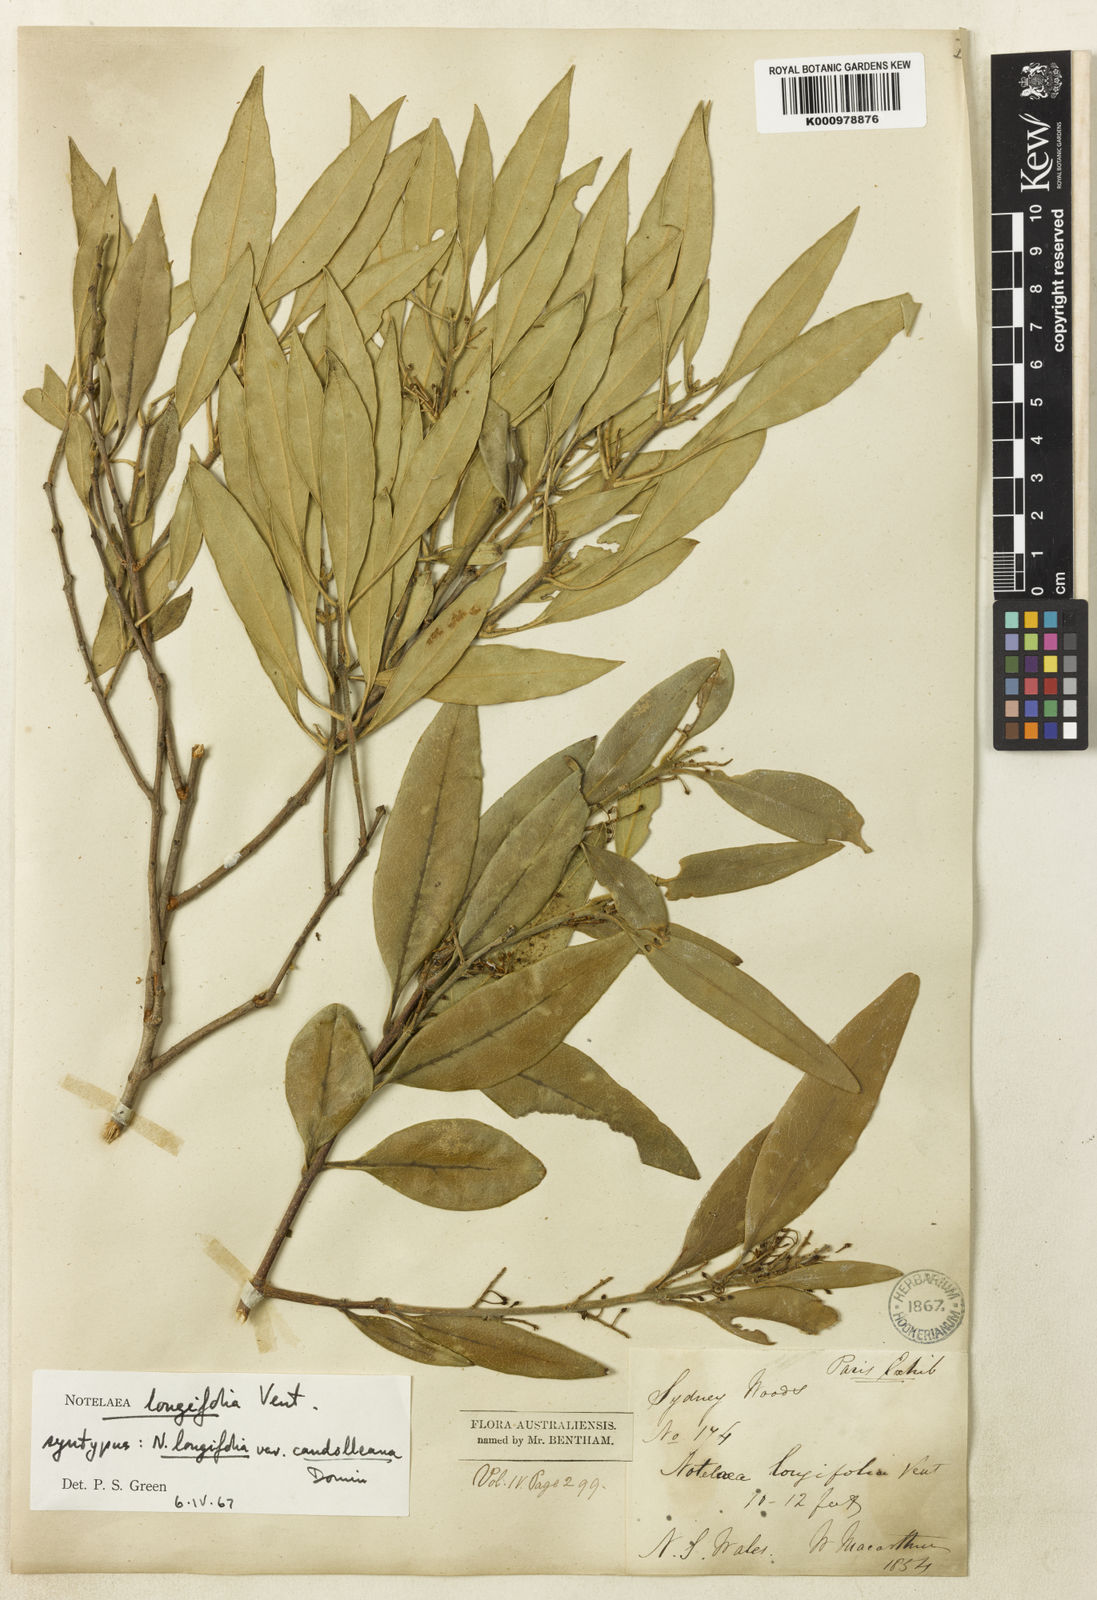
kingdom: Plantae
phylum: Tracheophyta
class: Magnoliopsida
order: Lamiales
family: Oleaceae
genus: Notelaea
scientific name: Notelaea longifolia
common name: Large mock olive
